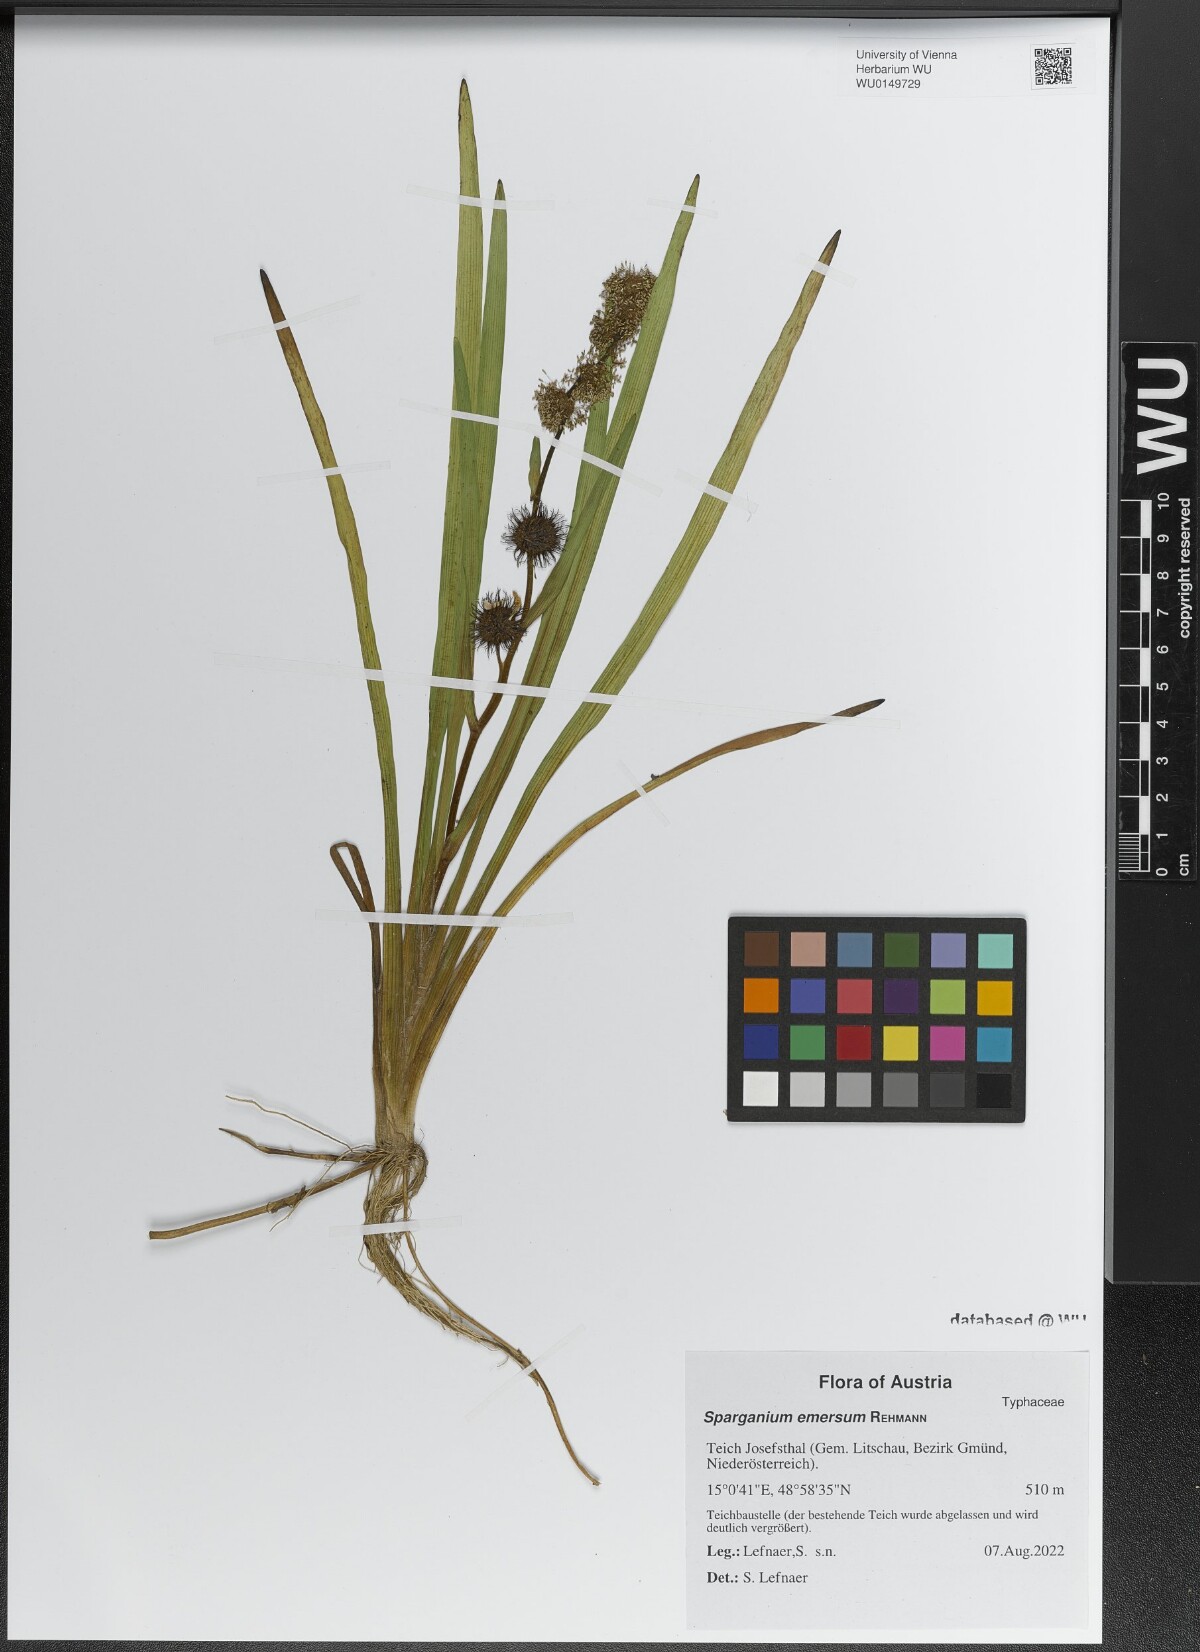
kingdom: Plantae
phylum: Tracheophyta
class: Liliopsida
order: Poales
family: Typhaceae
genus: Sparganium
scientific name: Sparganium emersum
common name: Unbranched bur-reed
